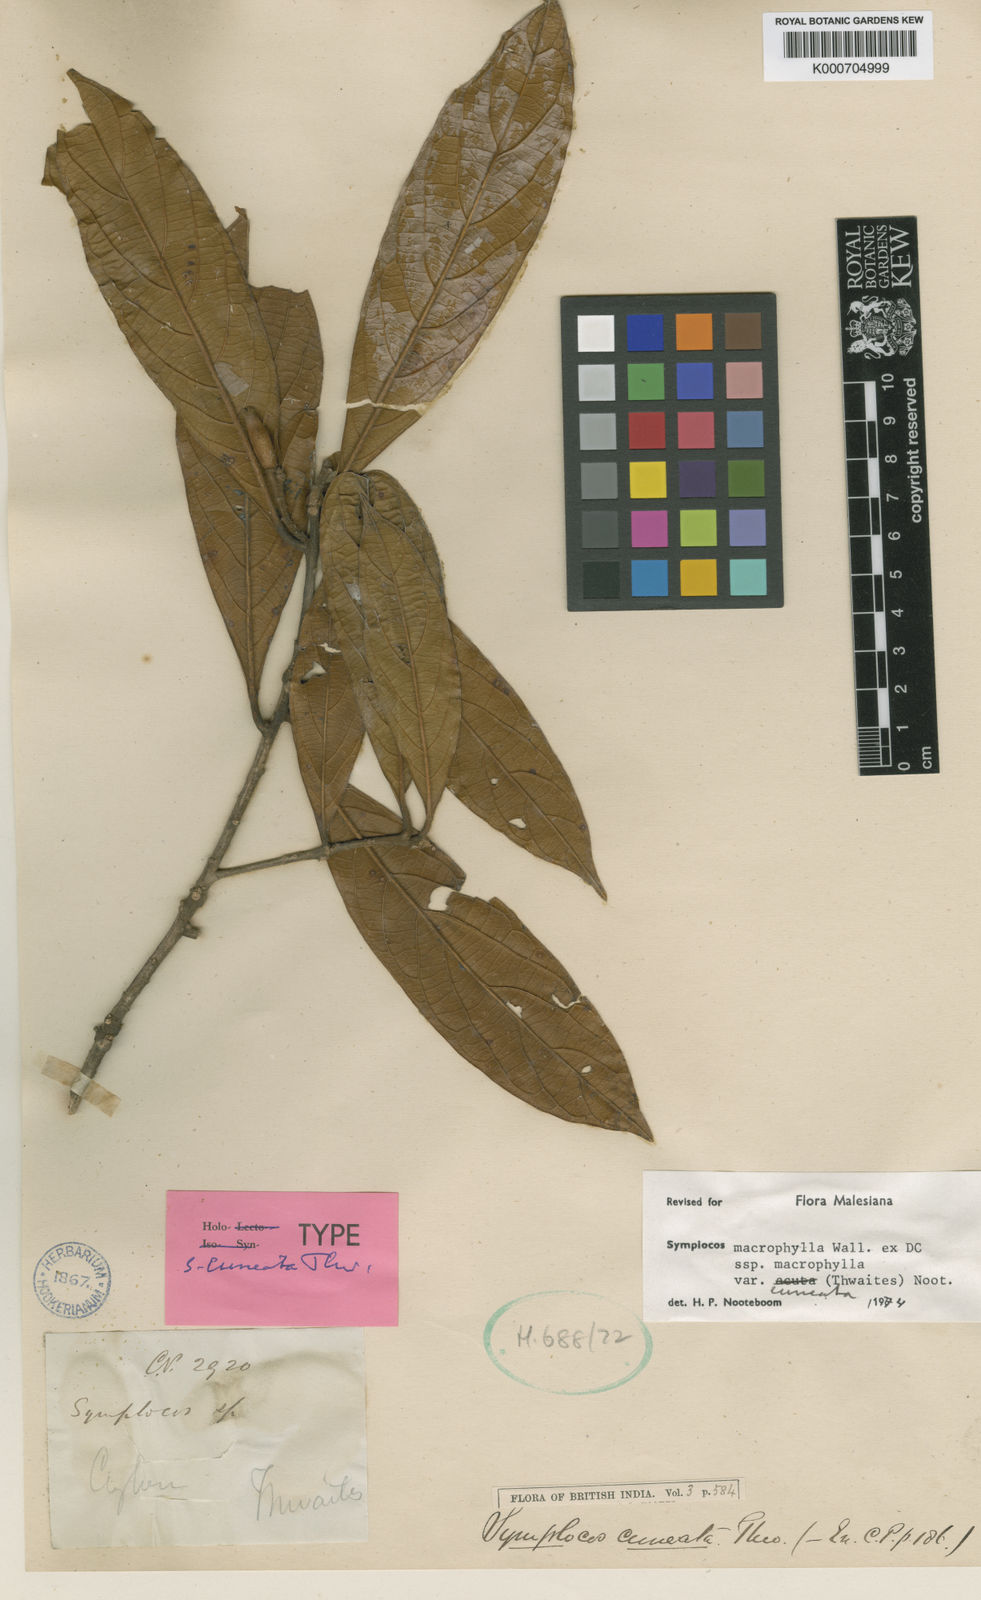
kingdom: Plantae
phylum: Tracheophyta
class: Magnoliopsida
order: Ericales
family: Symplocaceae
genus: Symplocos
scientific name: Symplocos
